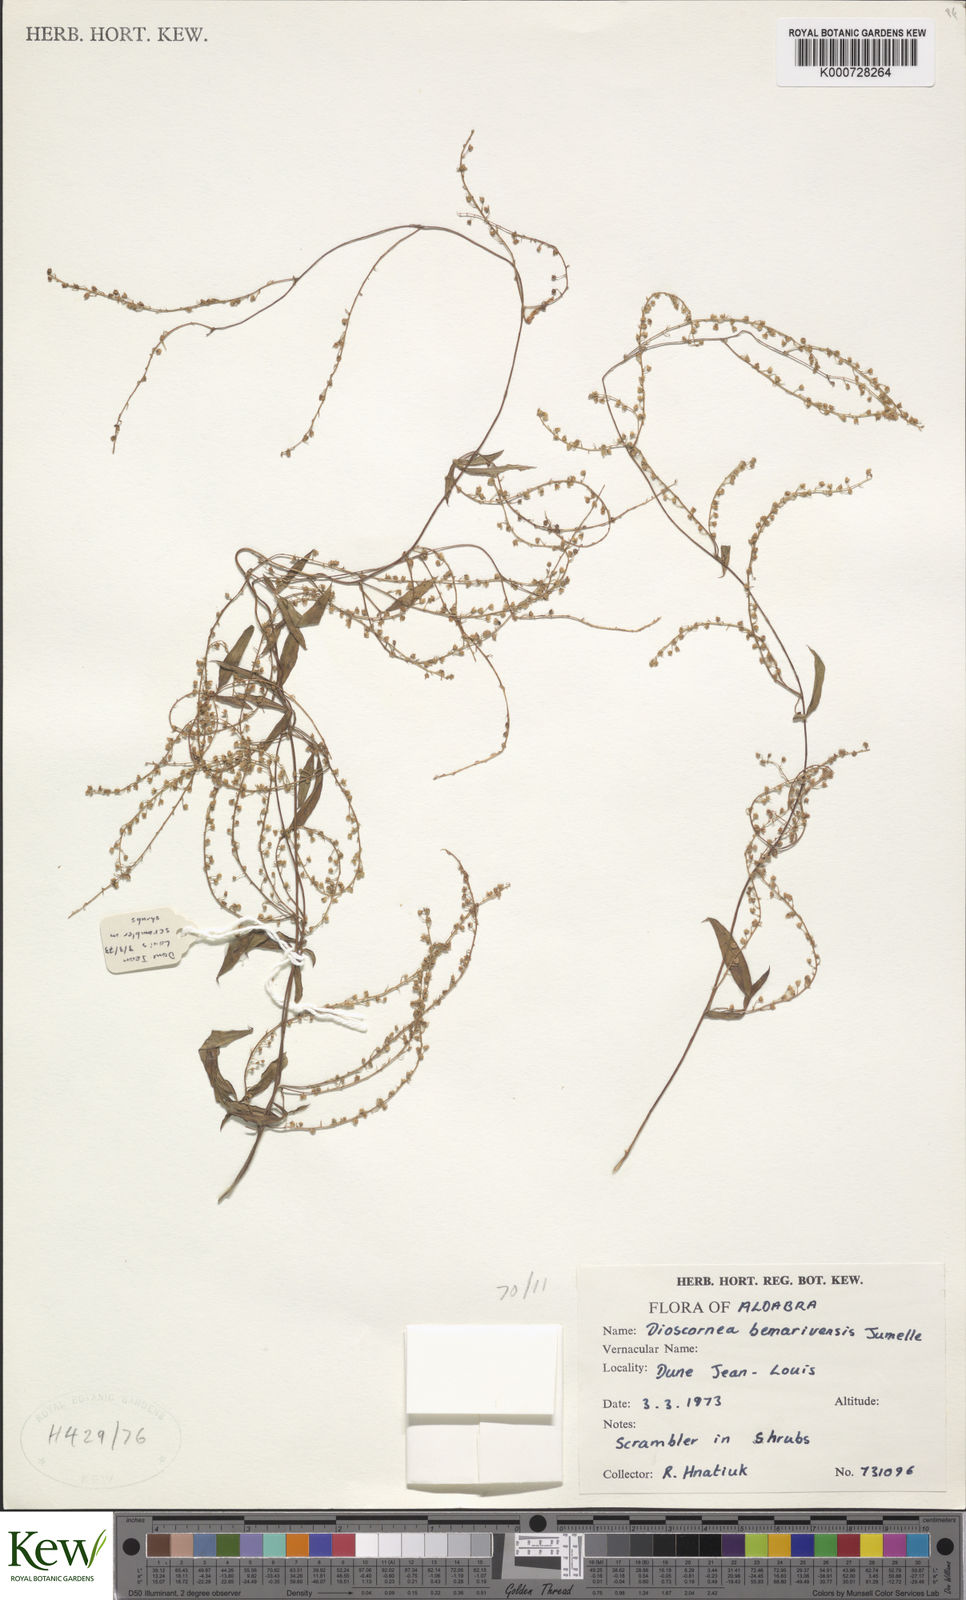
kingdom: Plantae
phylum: Tracheophyta
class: Liliopsida
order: Dioscoreales
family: Dioscoreaceae
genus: Dioscorea
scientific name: Dioscorea bemarivensis
